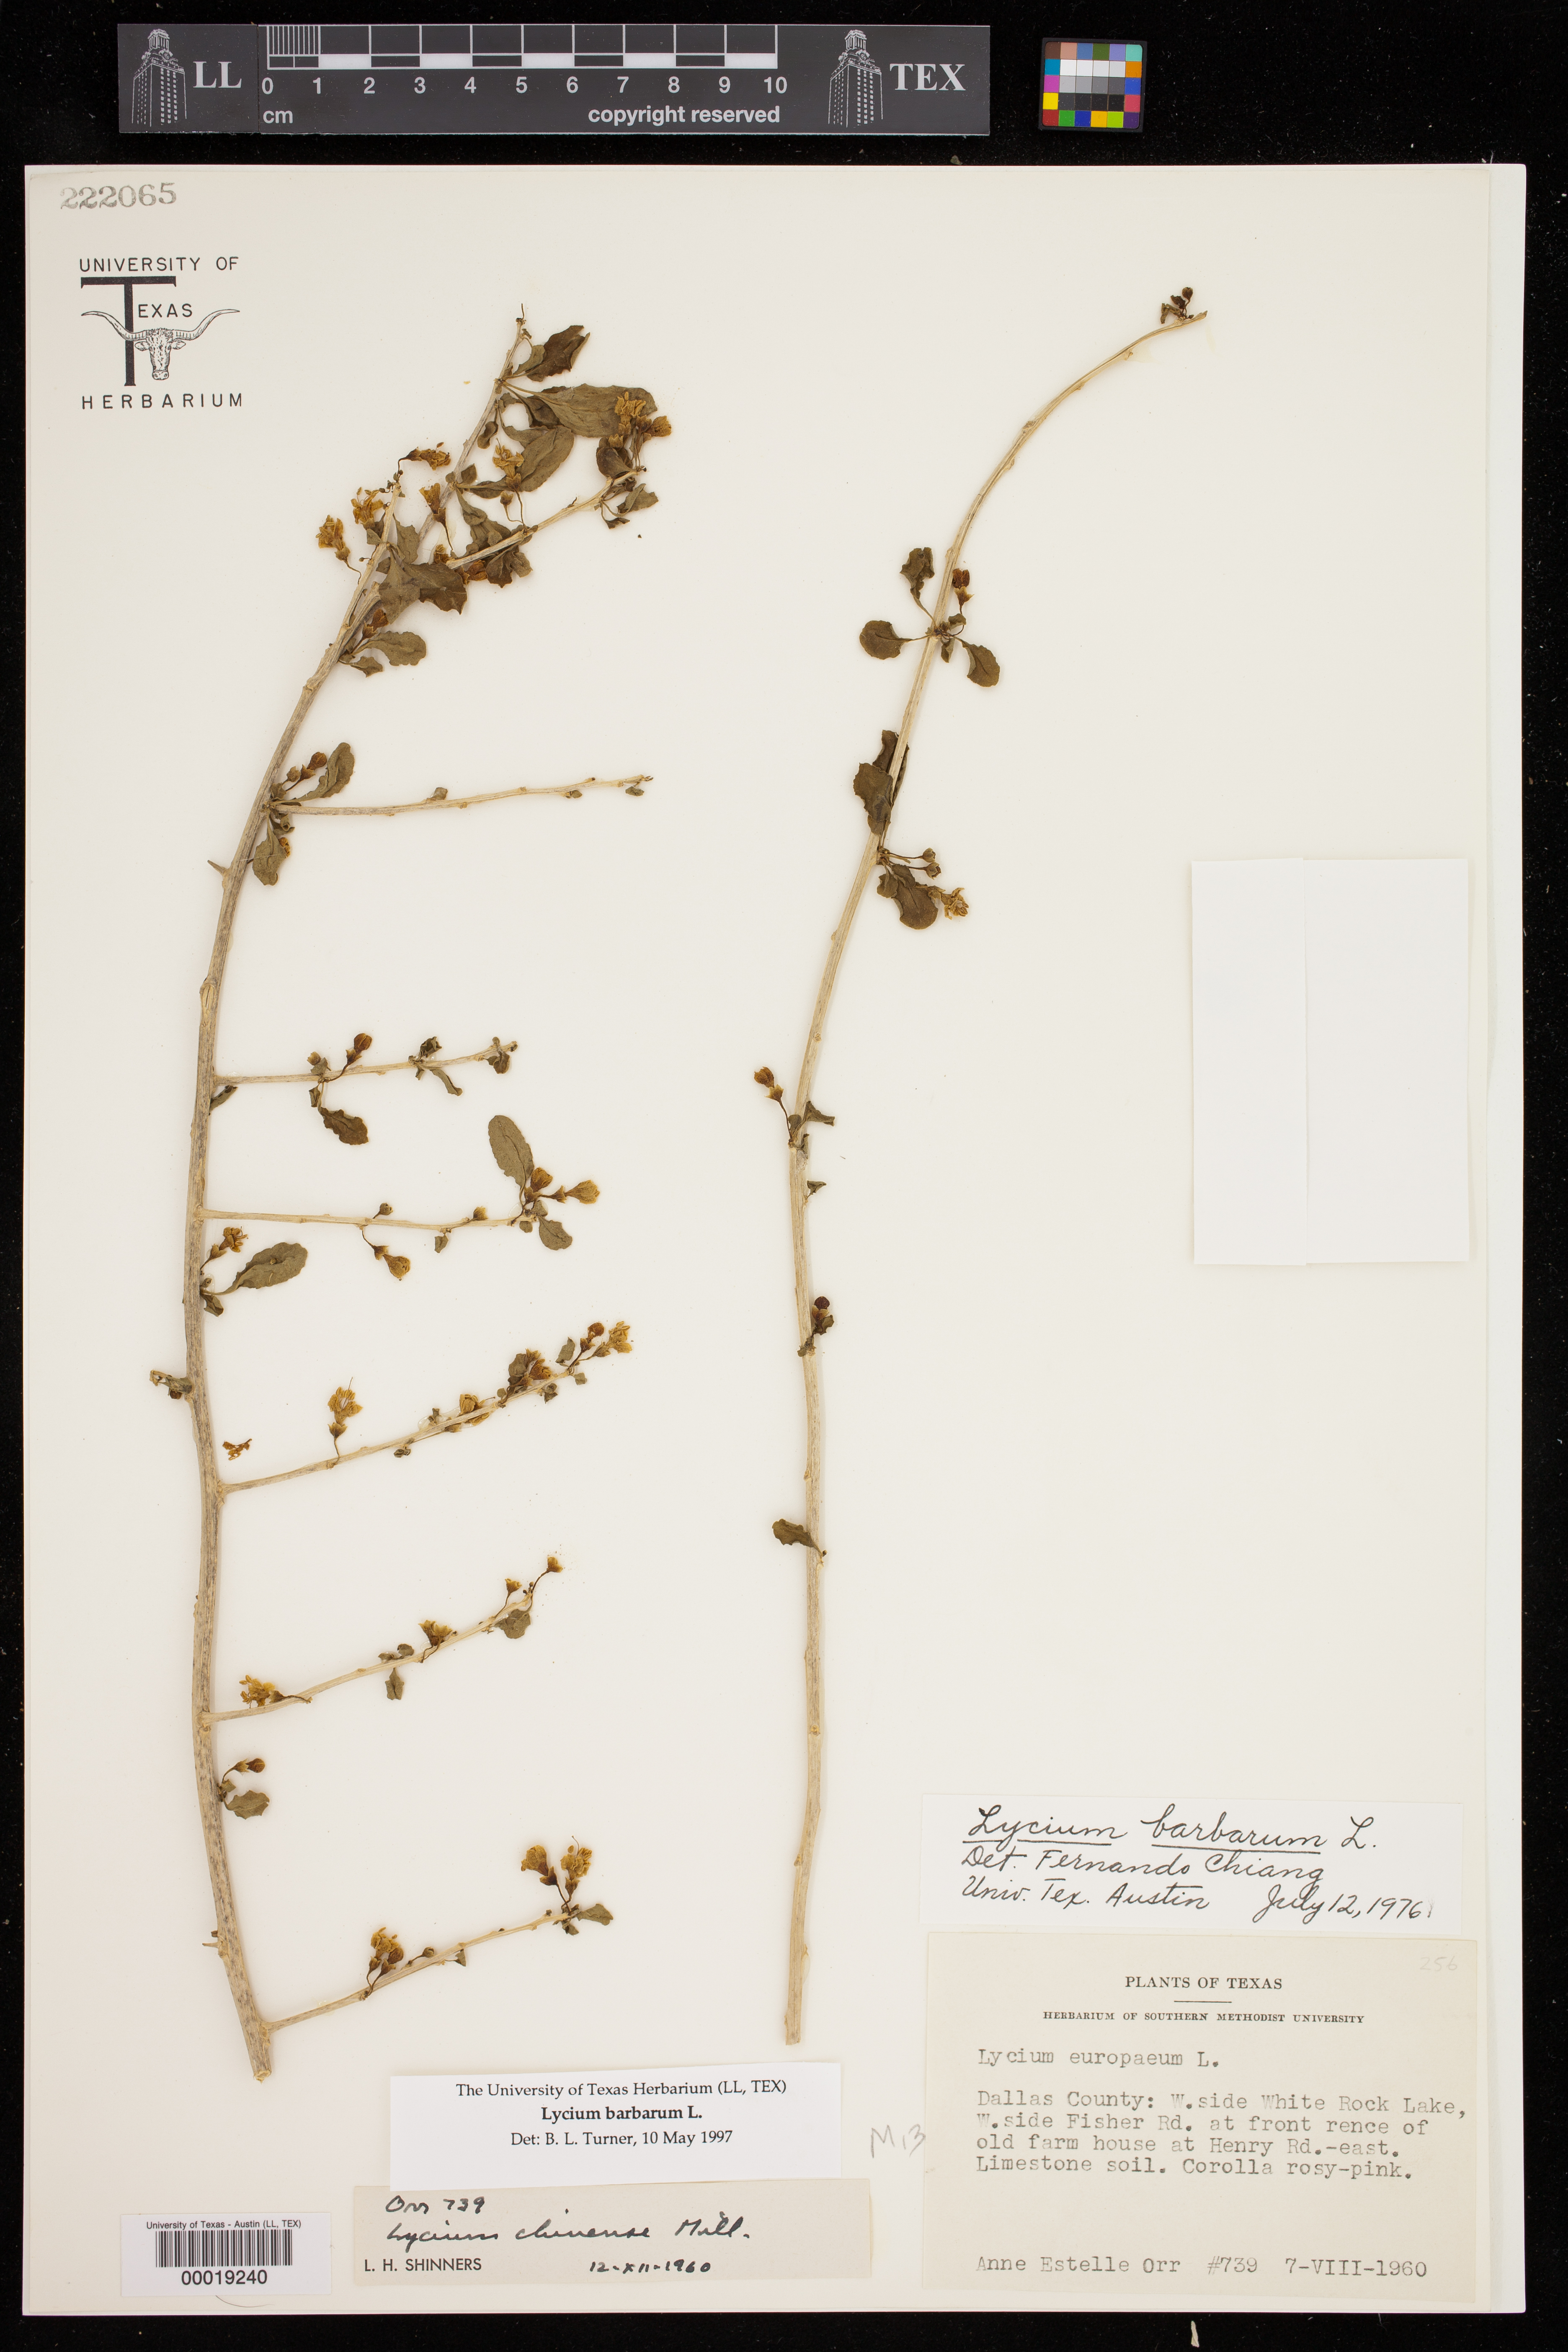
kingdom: Plantae
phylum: Tracheophyta
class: Magnoliopsida
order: Solanales
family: Solanaceae
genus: Lycium
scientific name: Lycium barbarum
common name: Duke of argyll's teaplant
